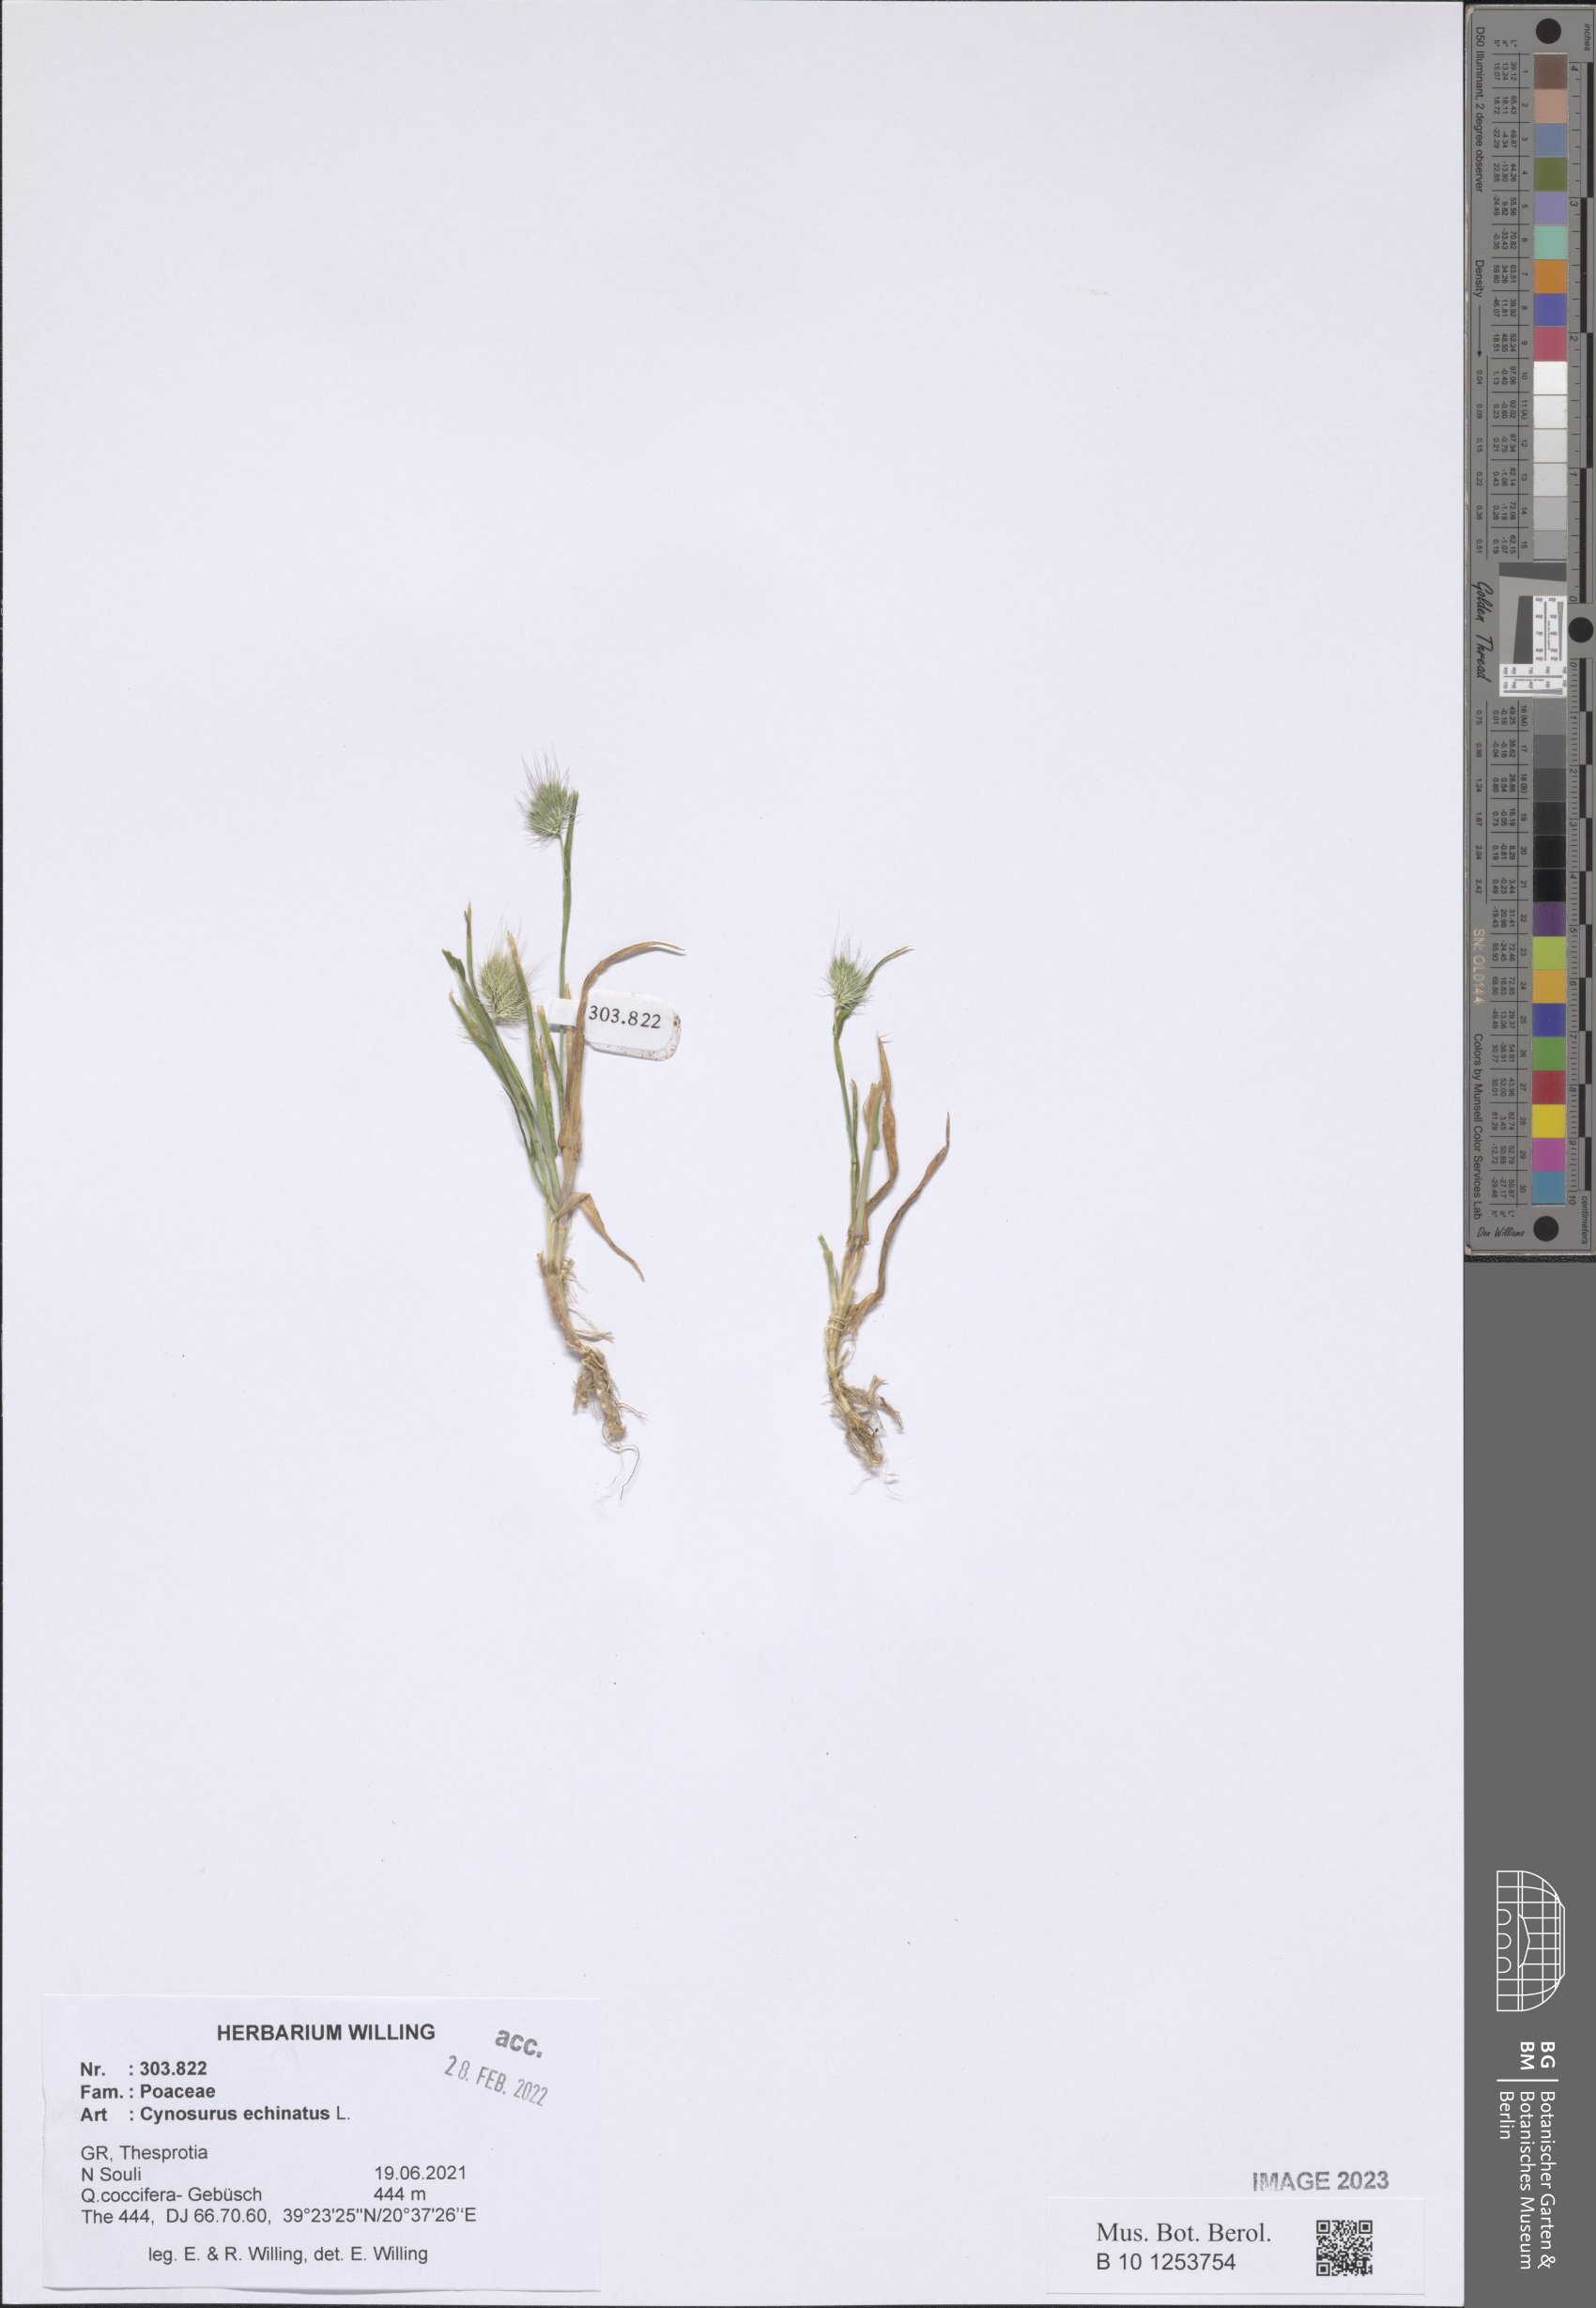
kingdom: Plantae
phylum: Tracheophyta
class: Liliopsida
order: Poales
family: Poaceae
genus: Cynosurus
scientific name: Cynosurus echinatus
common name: Rough dog's-tail
